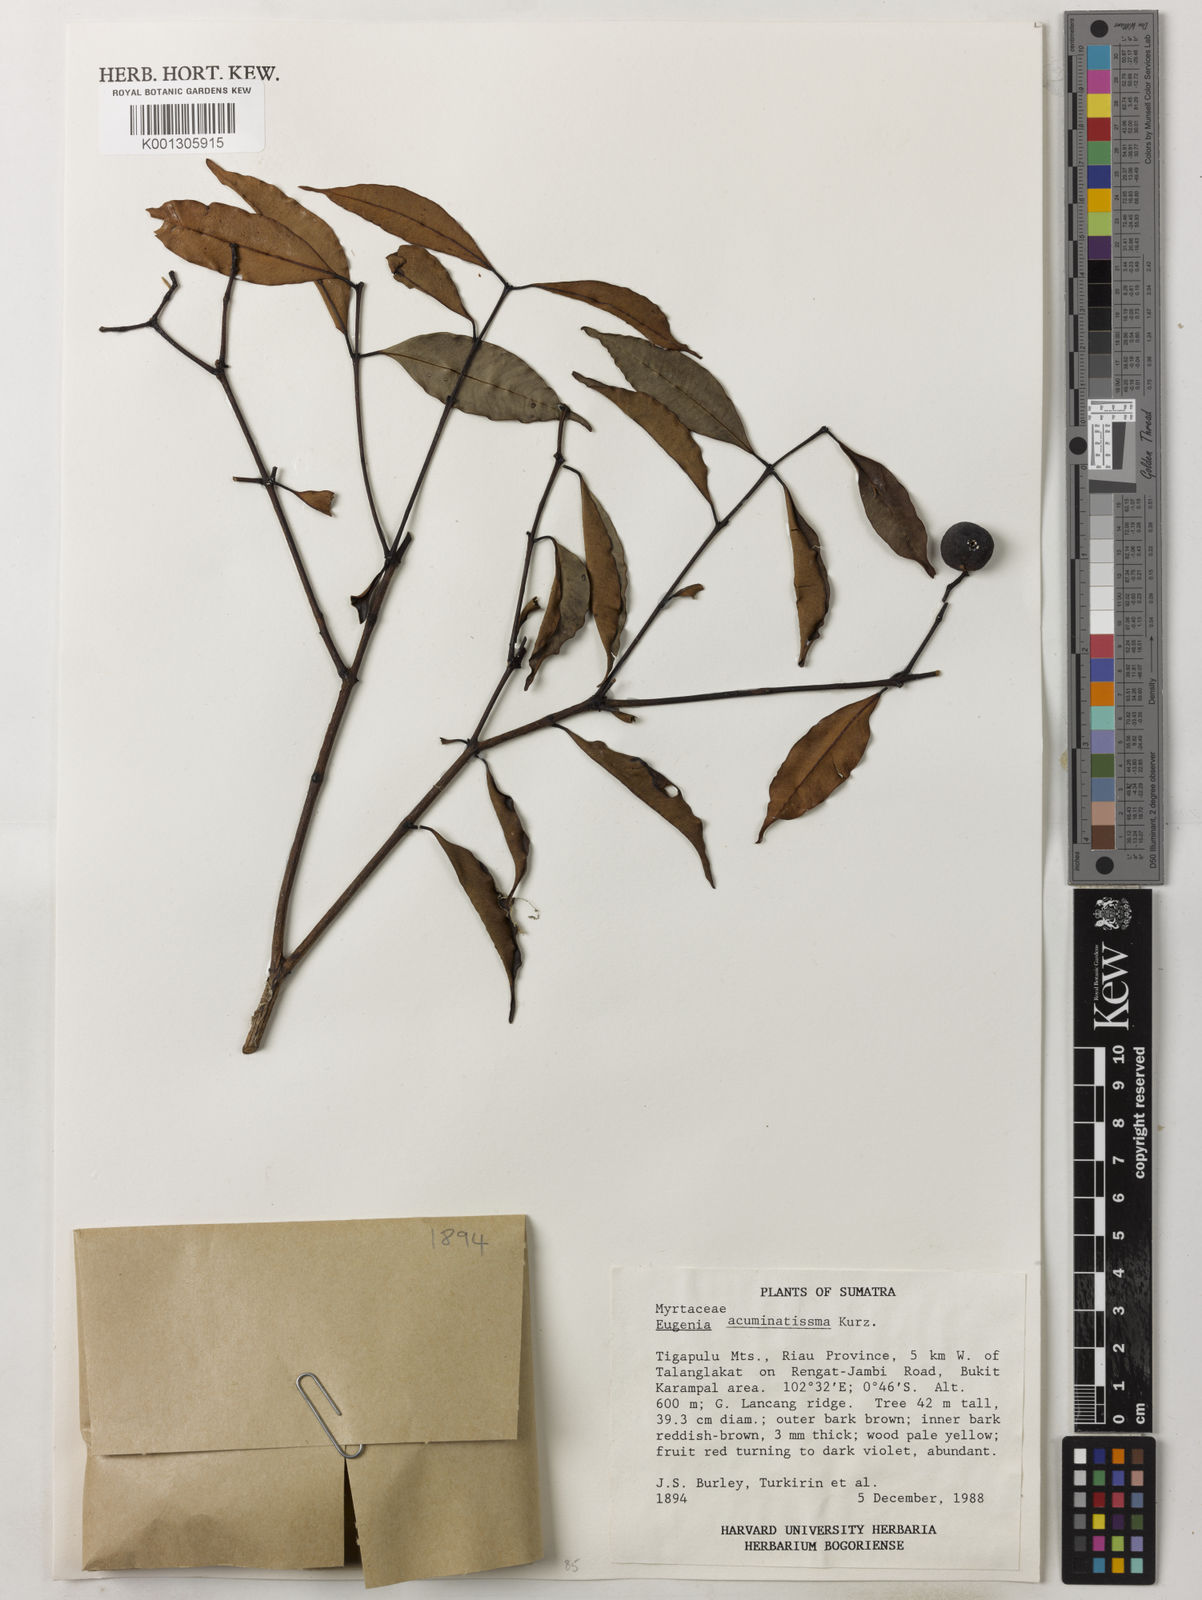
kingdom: Plantae
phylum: Tracheophyta
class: Magnoliopsida
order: Myrtales
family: Myrtaceae
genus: Syzygium
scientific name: Syzygium acuminatissimum
